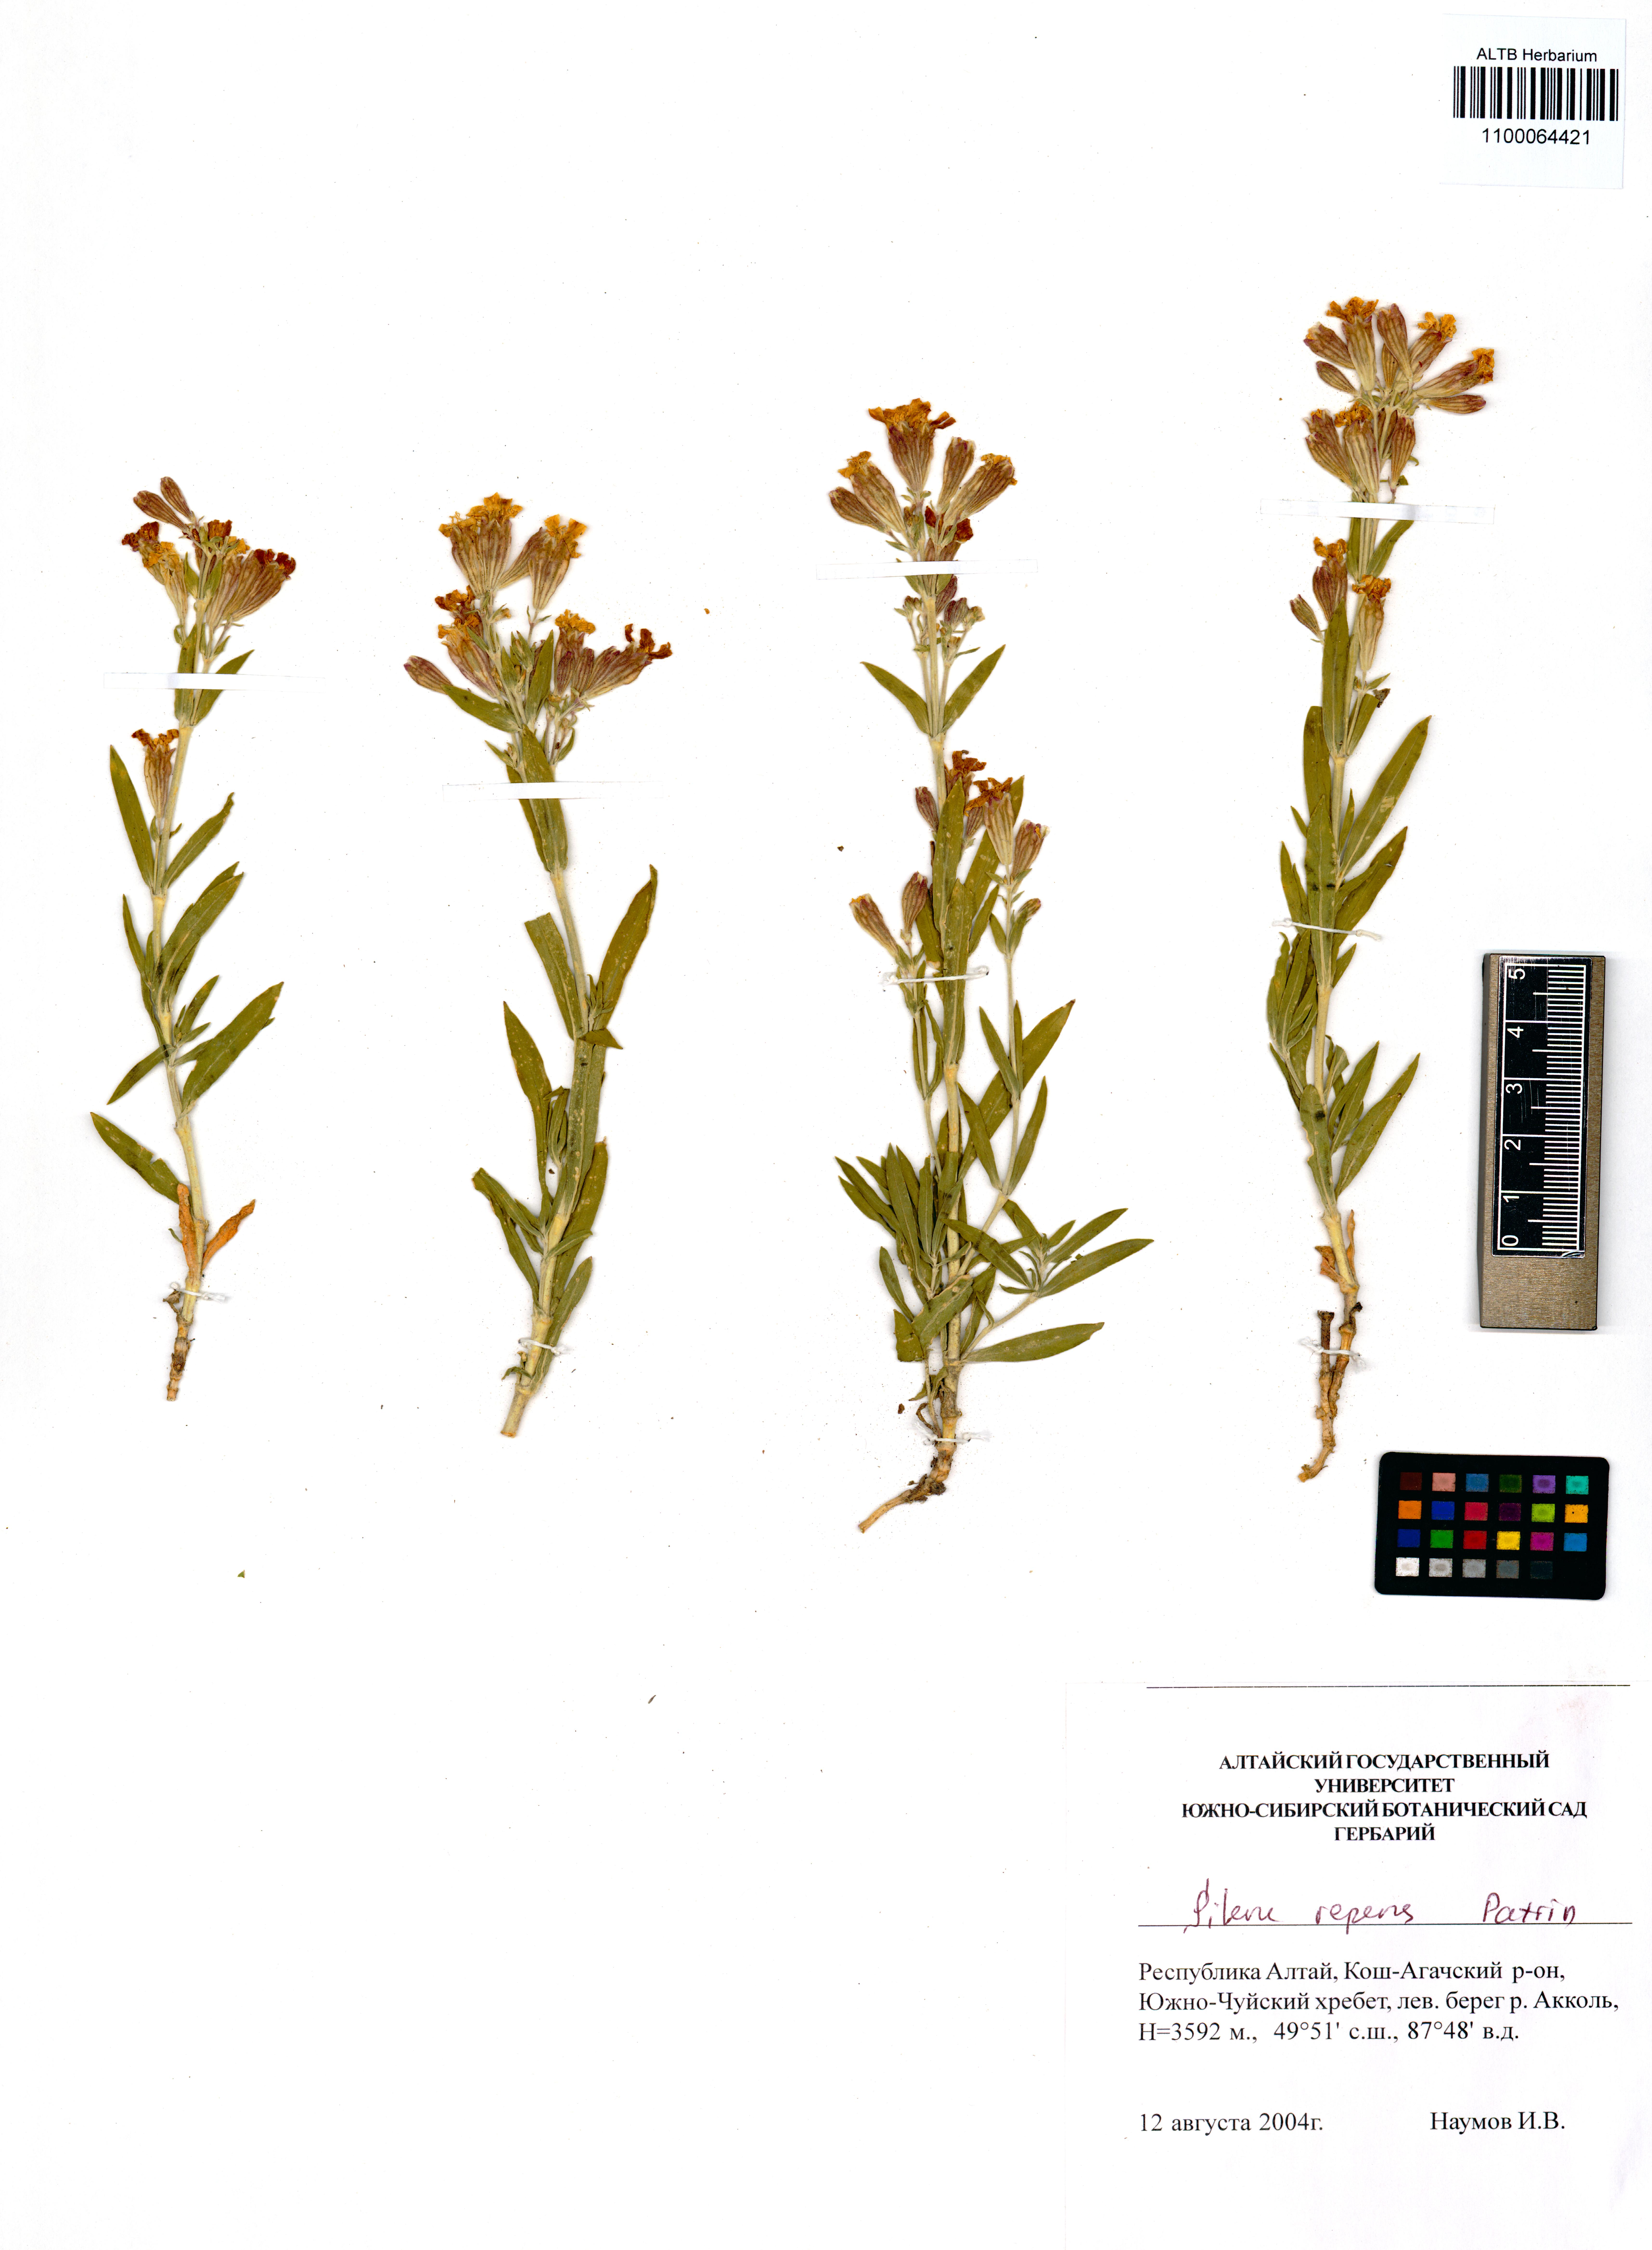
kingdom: Plantae
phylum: Tracheophyta
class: Magnoliopsida
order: Caryophyllales
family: Caryophyllaceae
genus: Silene
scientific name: Silene repens
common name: Pink campion
